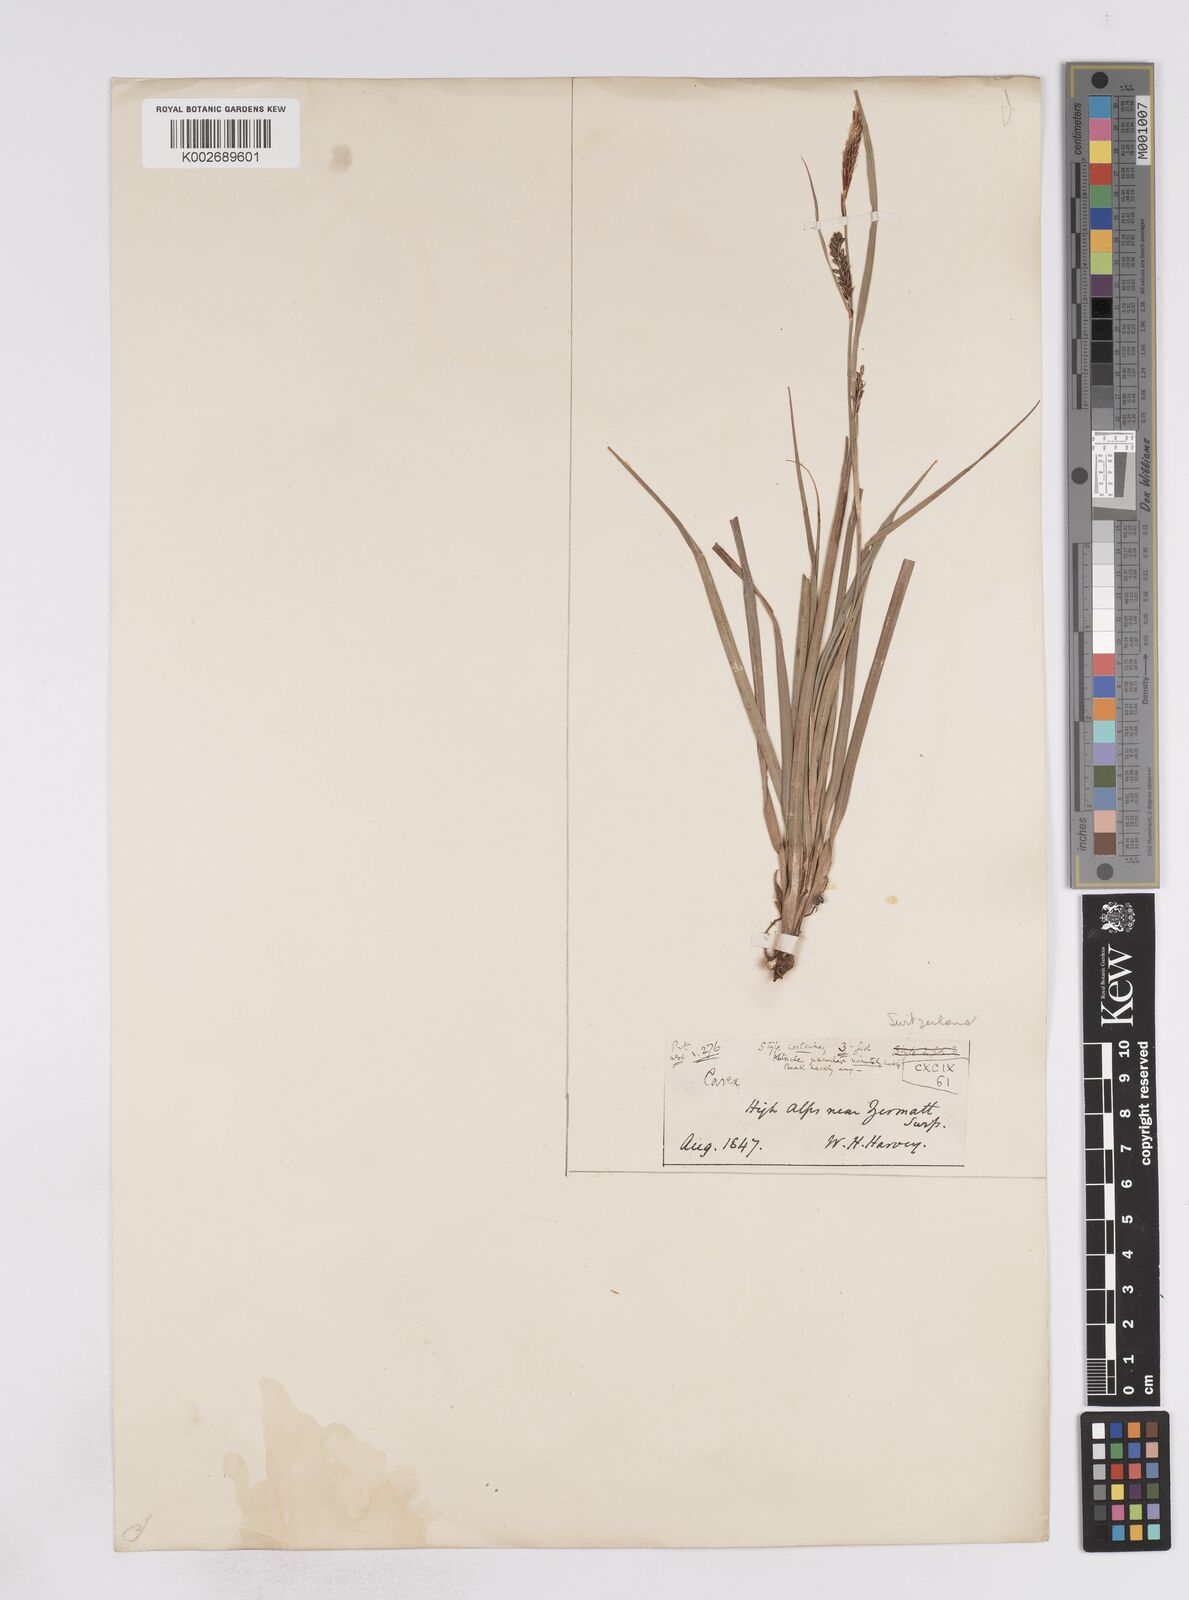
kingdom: Plantae
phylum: Tracheophyta
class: Liliopsida
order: Poales
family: Cyperaceae
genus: Carex
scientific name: Carex flacca
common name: Glaucous sedge
